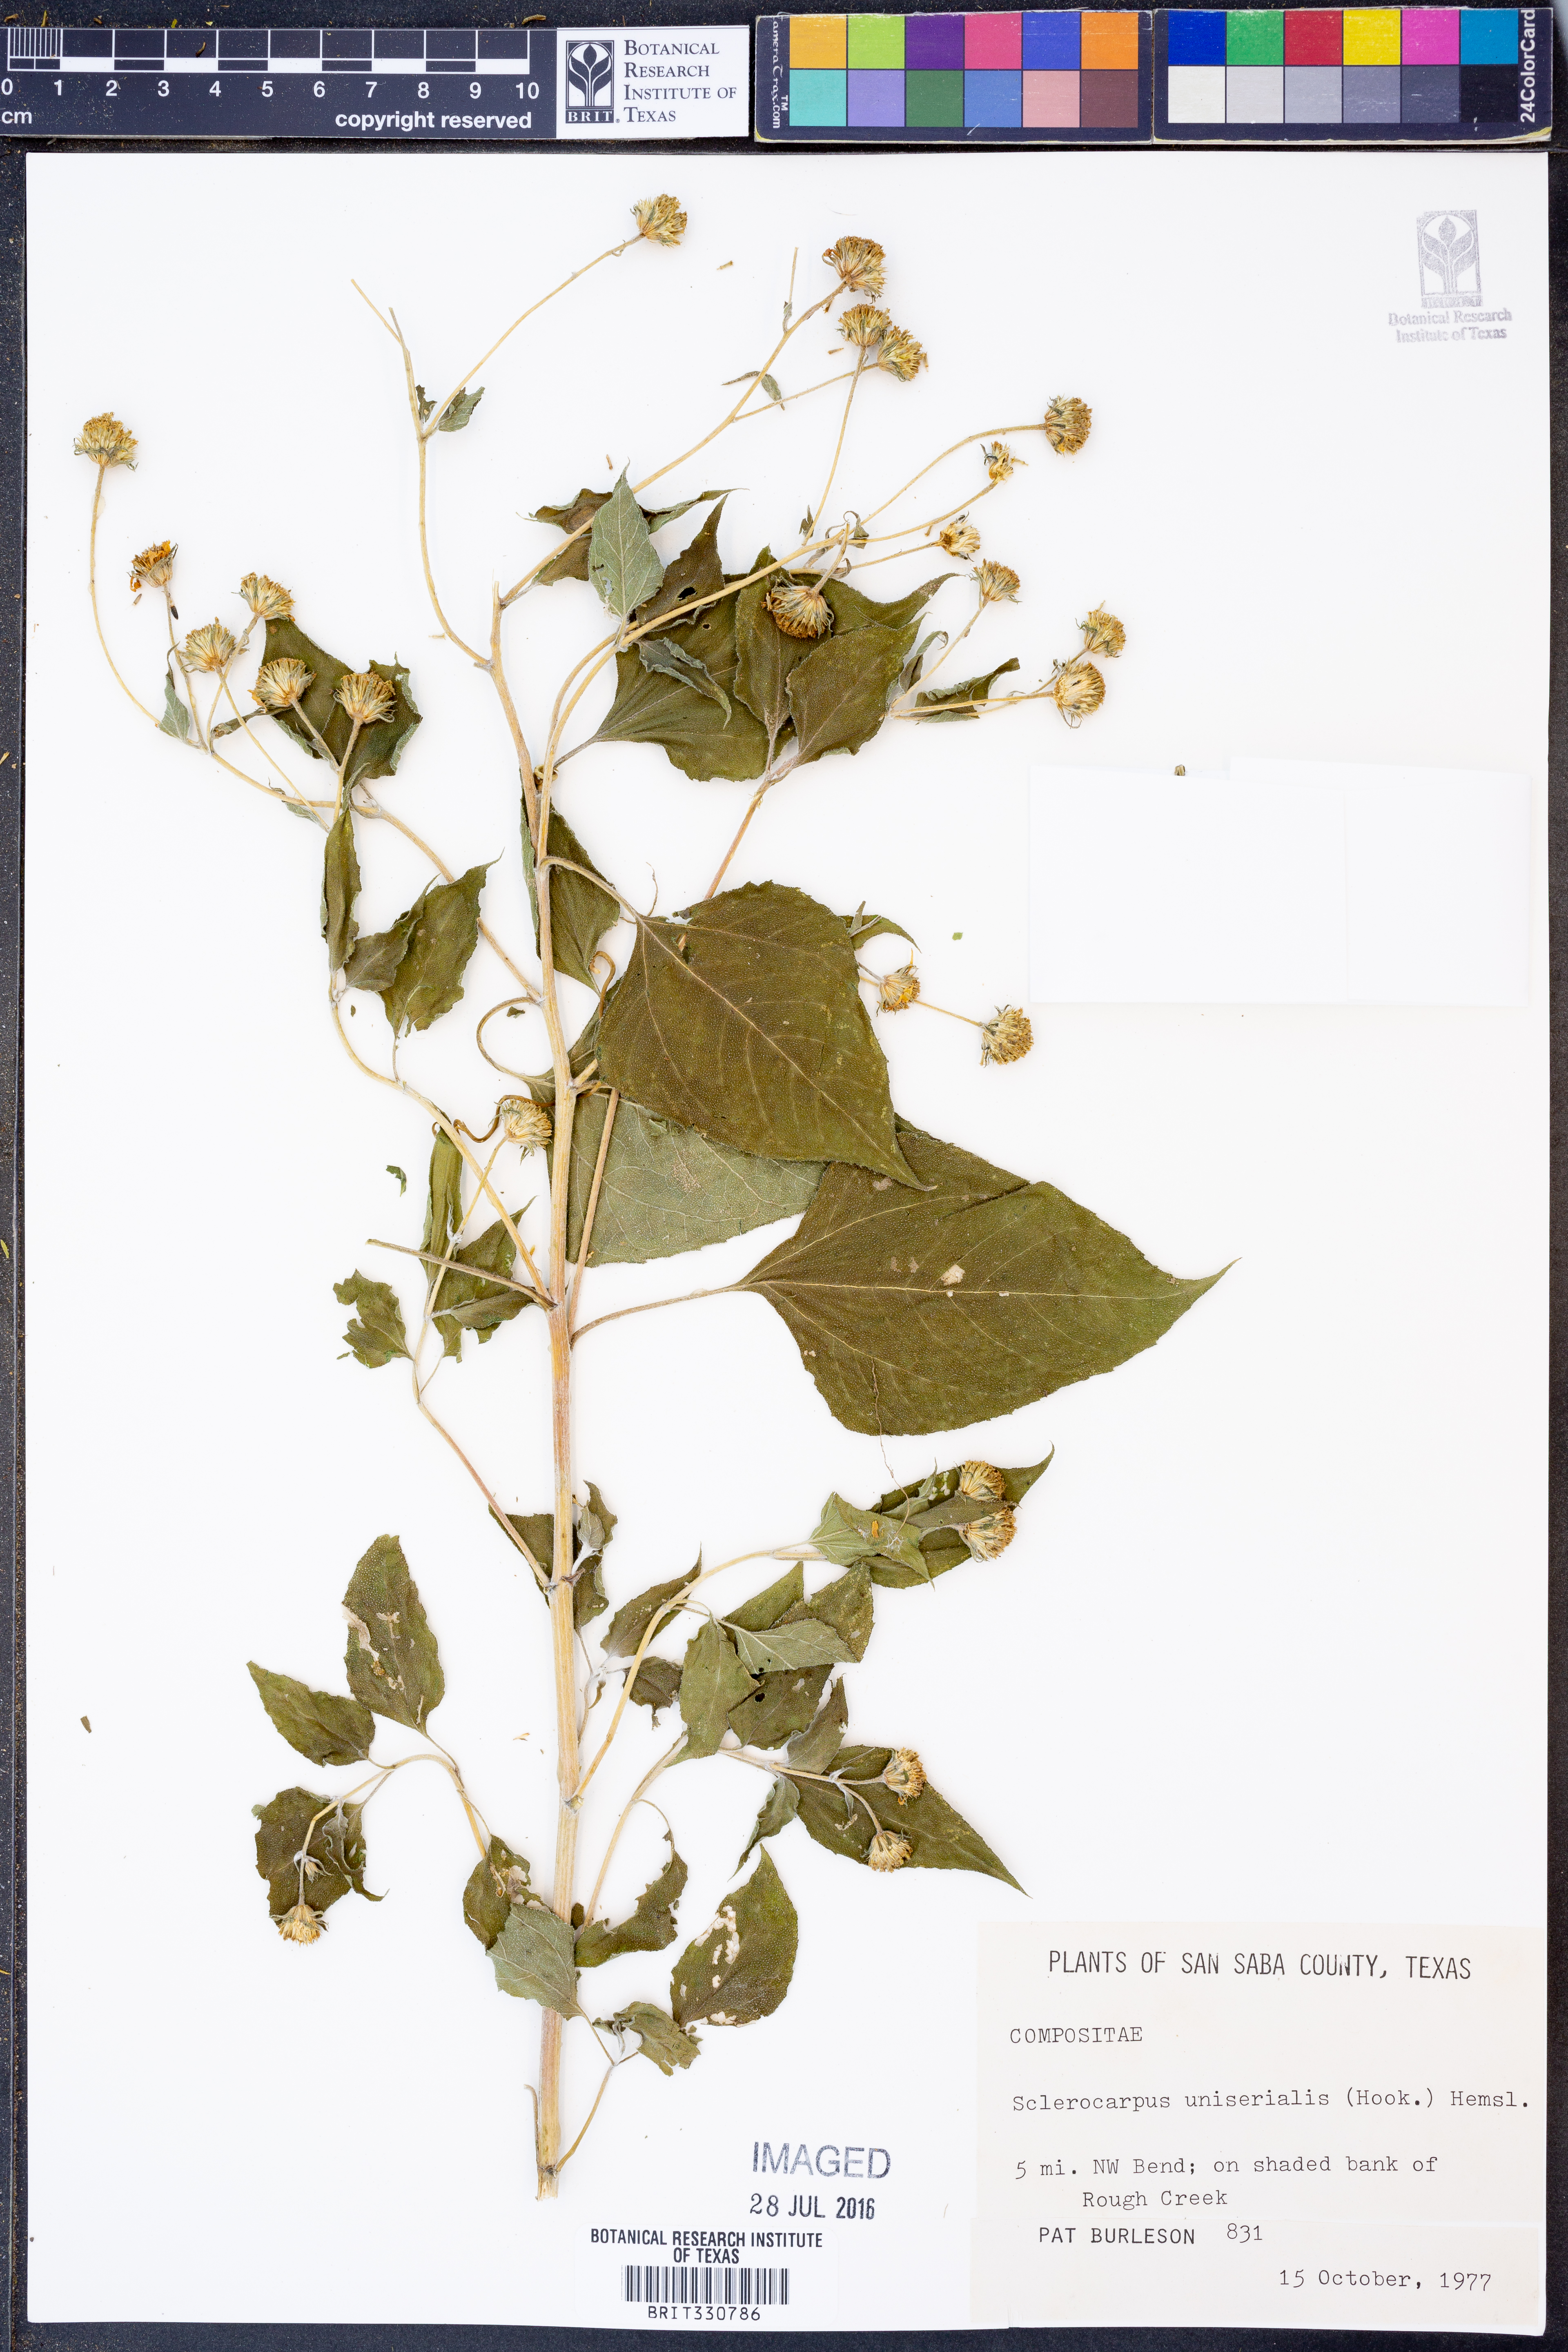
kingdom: Plantae
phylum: Tracheophyta
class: Magnoliopsida
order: Asterales
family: Asteraceae
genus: Sclerocarpus
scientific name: Sclerocarpus uniserialis
